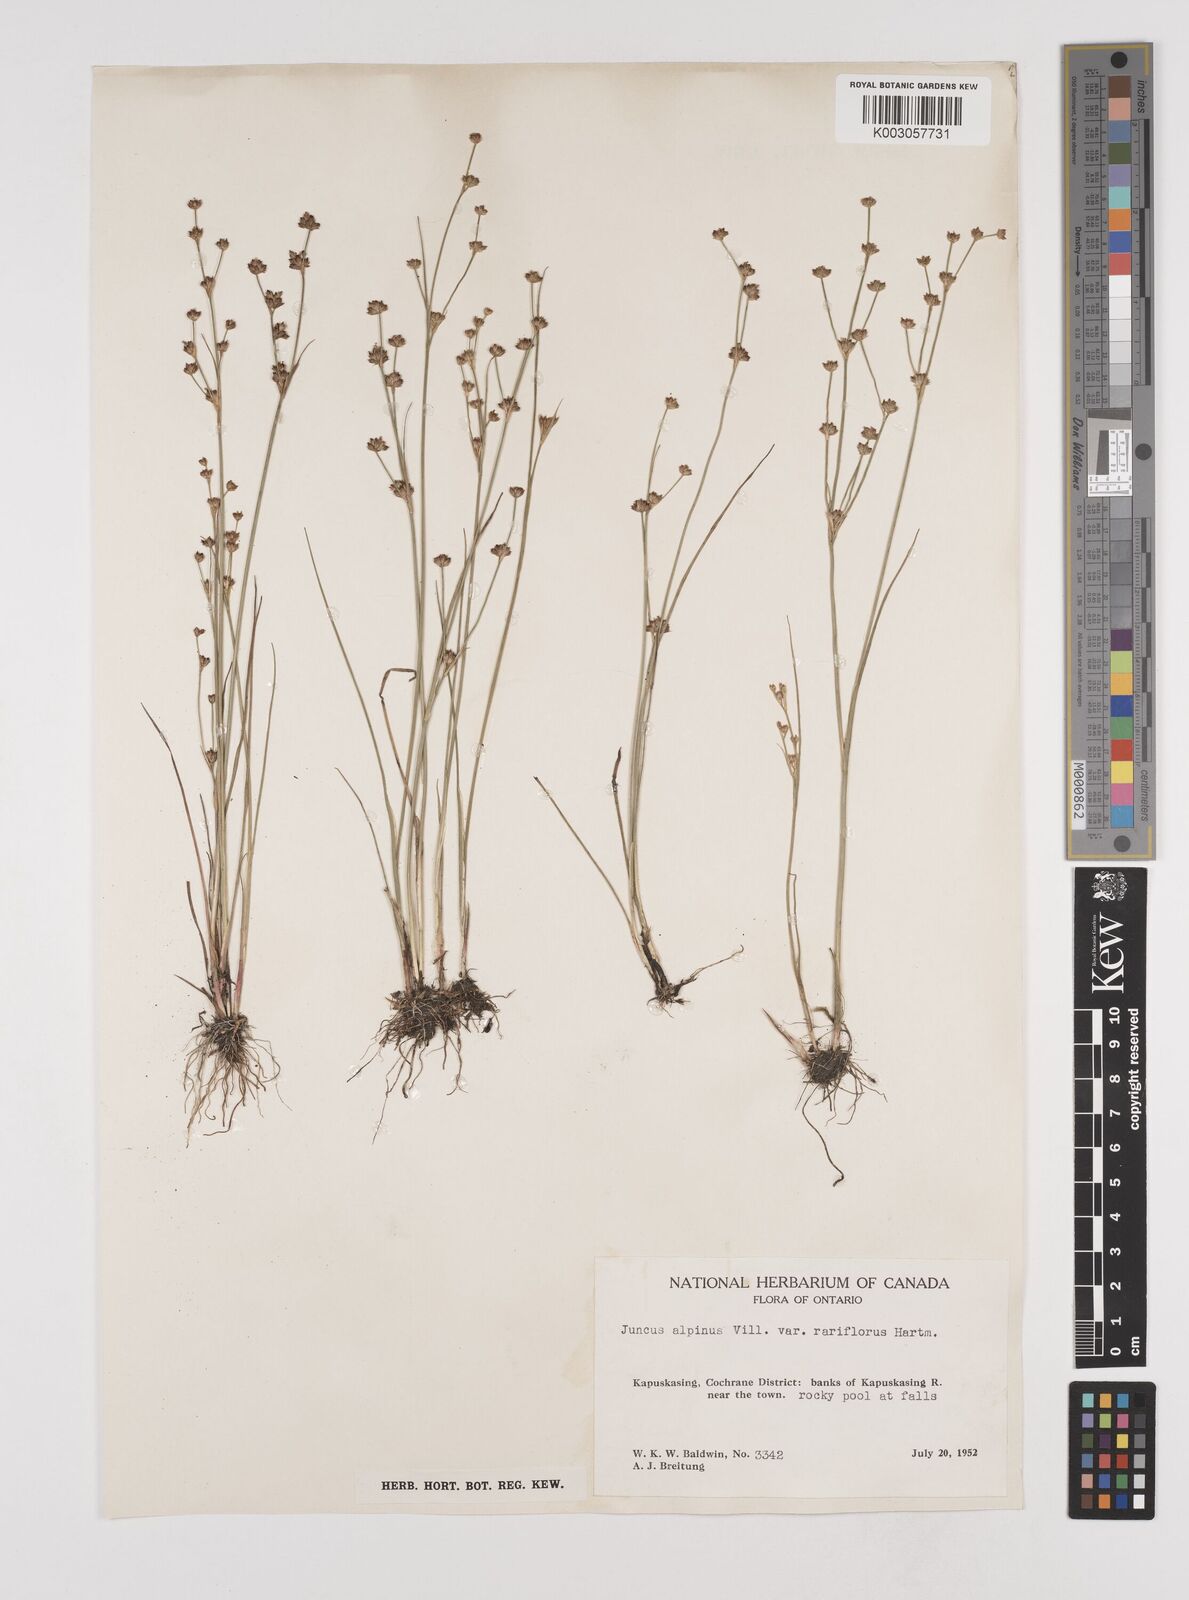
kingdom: Plantae
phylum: Tracheophyta
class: Liliopsida
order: Poales
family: Juncaceae
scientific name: Juncaceae
